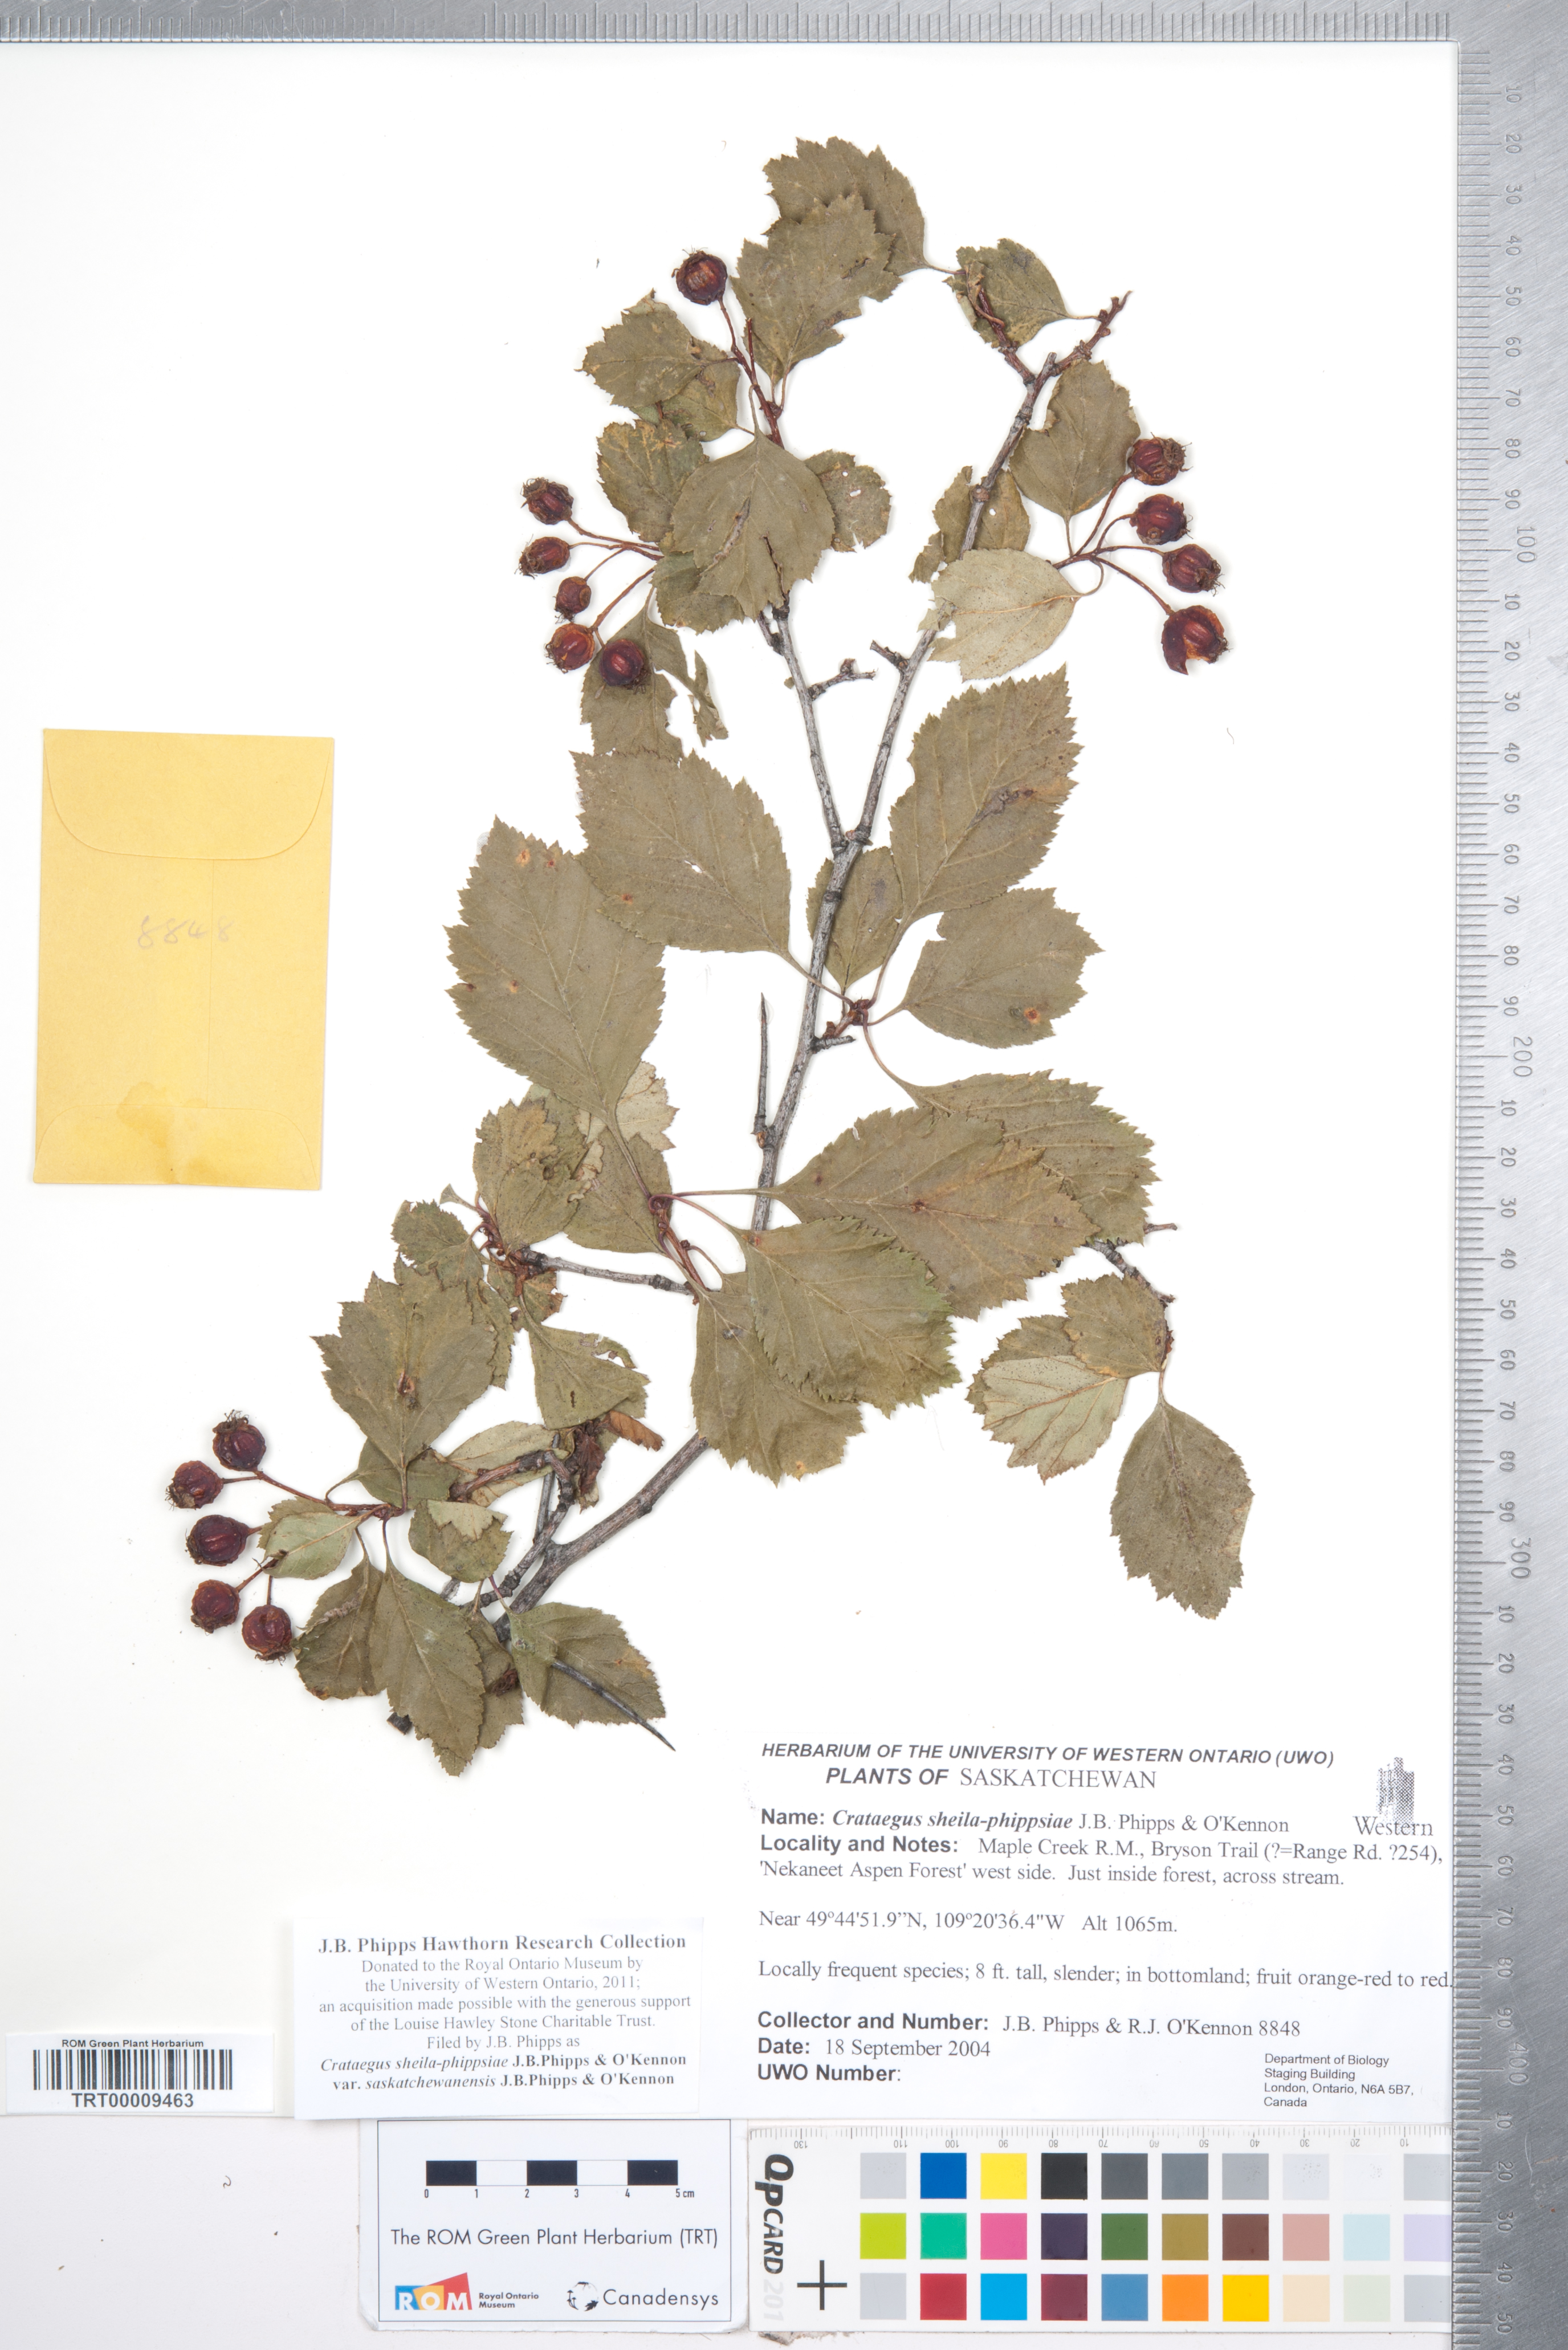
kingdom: Plantae
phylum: Tracheophyta
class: Magnoliopsida
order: Rosales
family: Rosaceae
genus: Crataegus
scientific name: Crataegus sheila-phippsiae
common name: Sheila phipps' hawthorn
